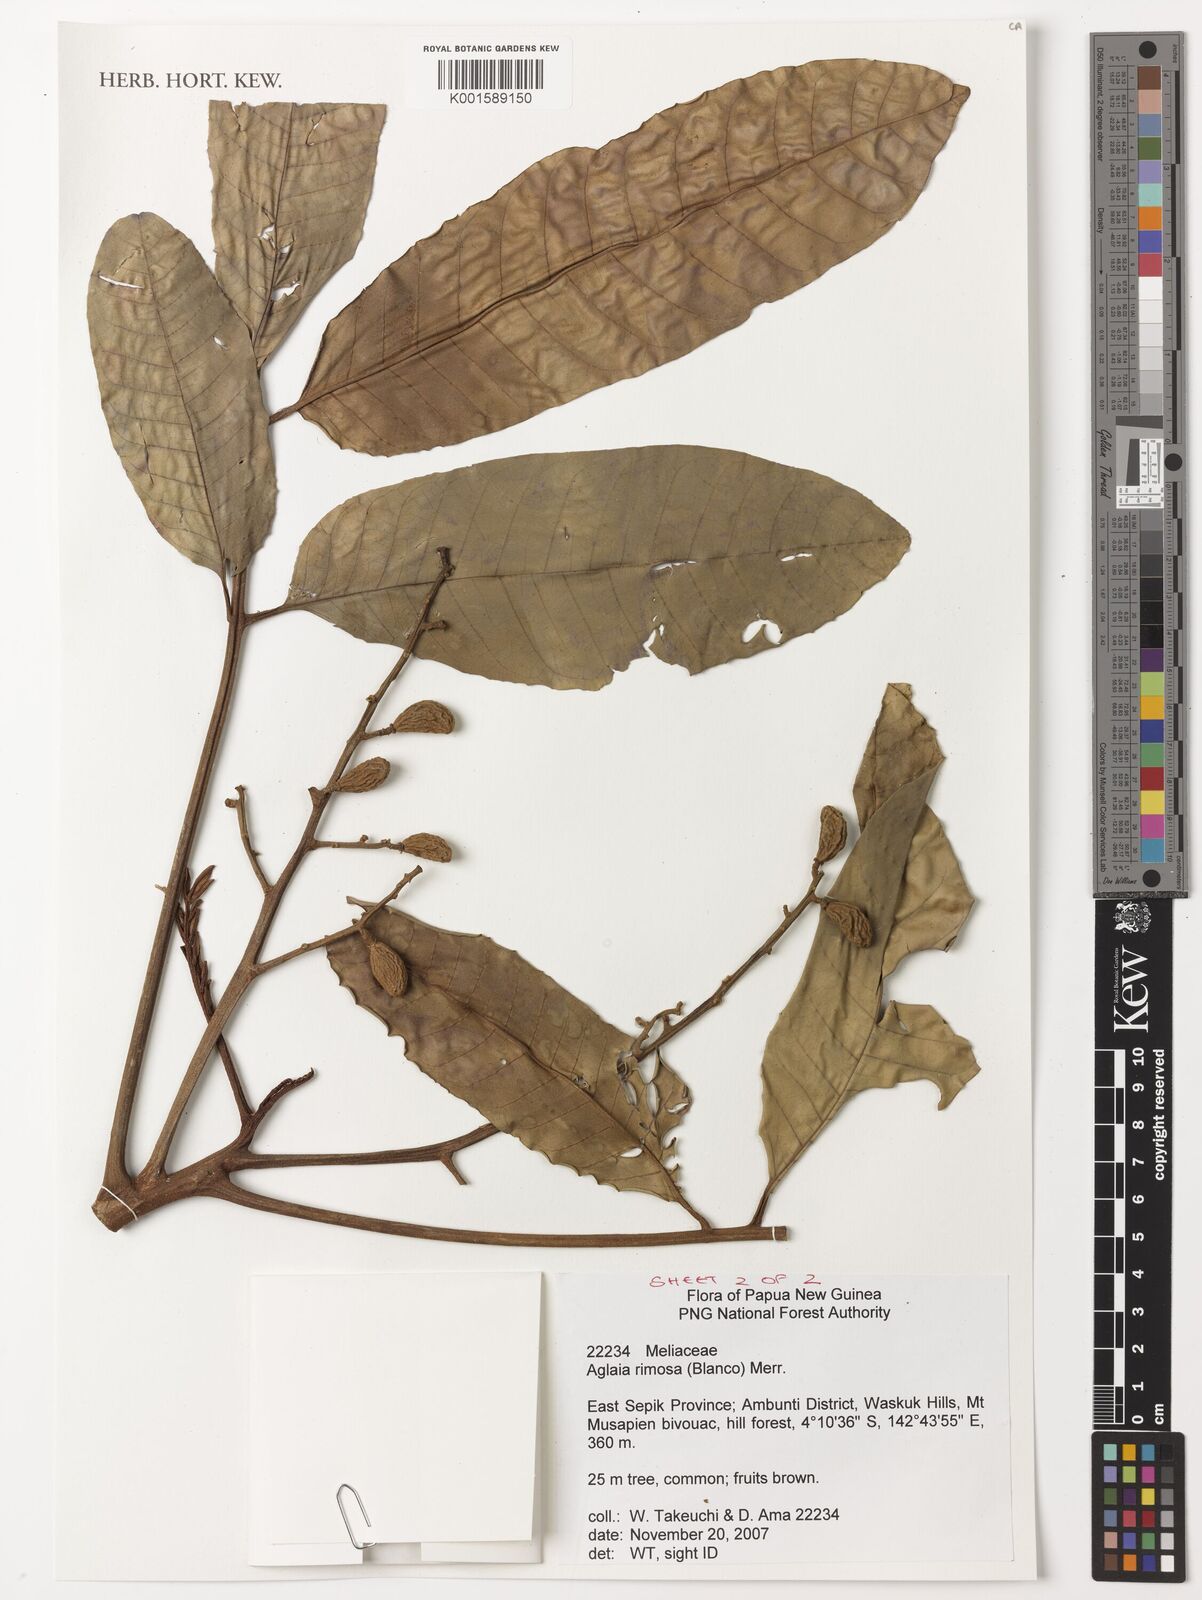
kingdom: Plantae
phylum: Tracheophyta
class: Magnoliopsida
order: Sapindales
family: Meliaceae
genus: Aglaia
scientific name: Aglaia rimosa
